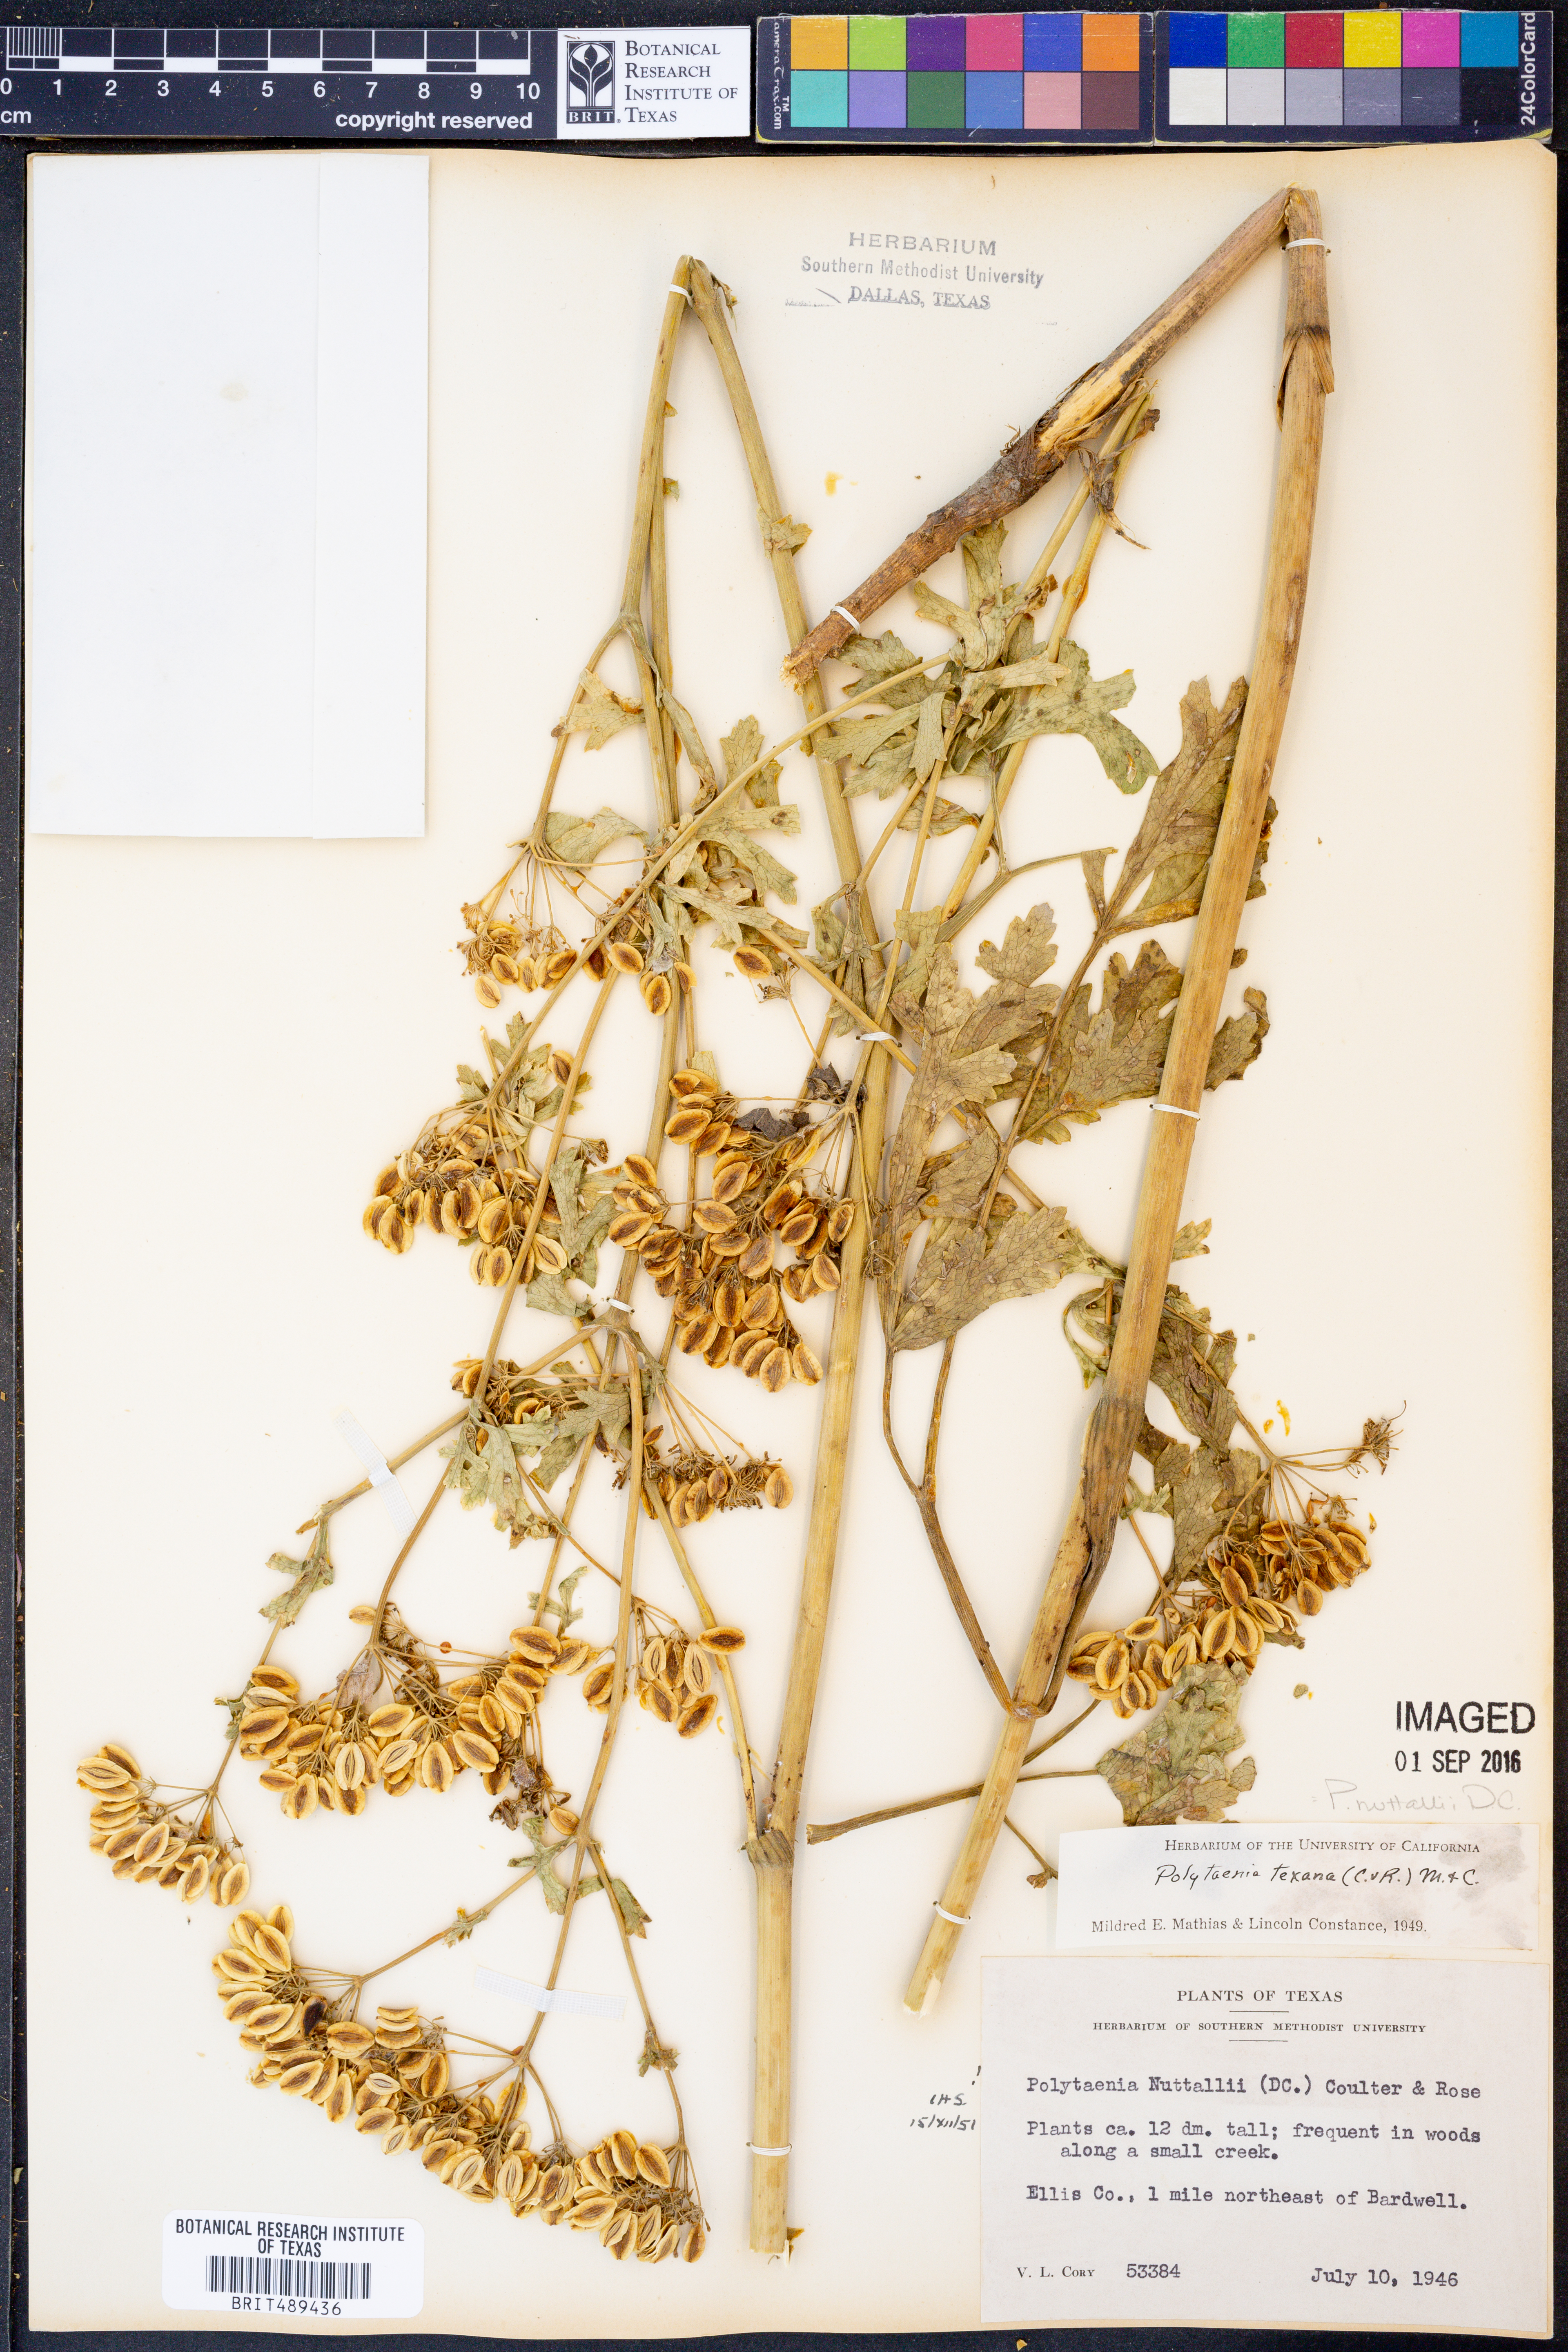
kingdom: Plantae
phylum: Tracheophyta
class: Magnoliopsida
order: Apiales
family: Apiaceae
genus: Polytaenia
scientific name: Polytaenia nuttallii
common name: Prairie-parsley
